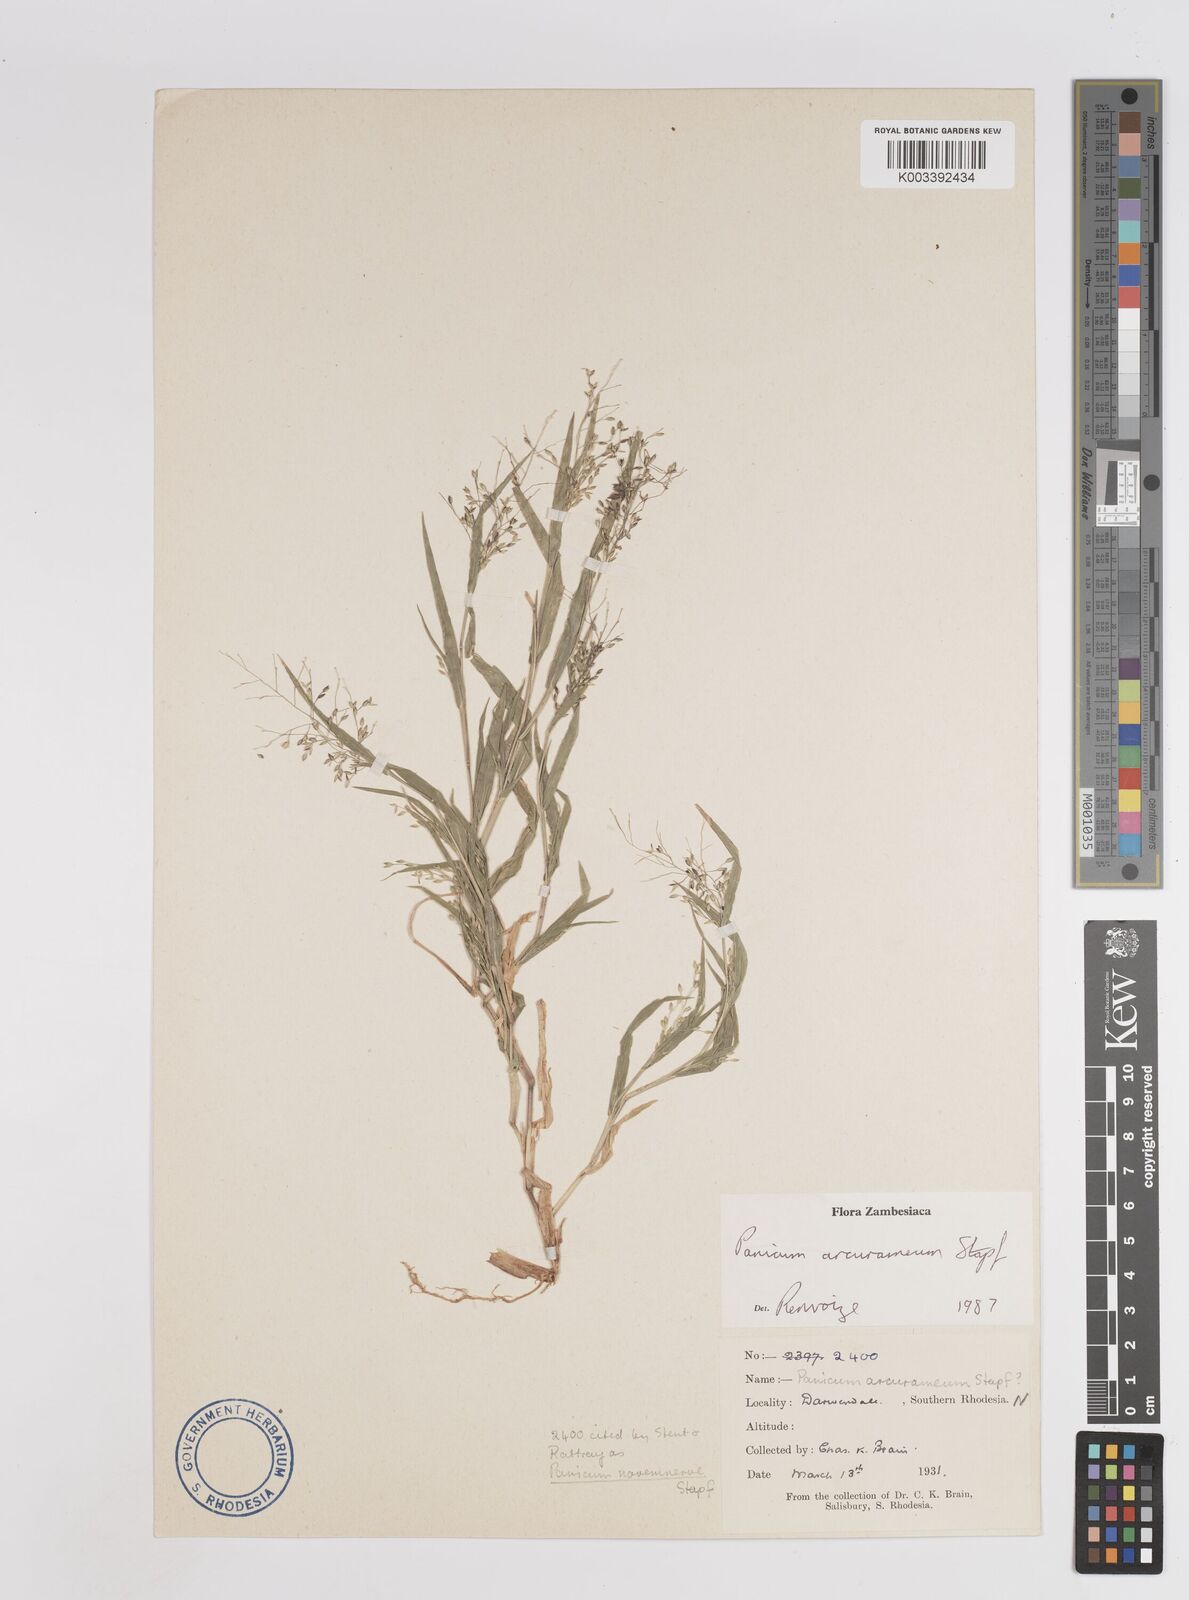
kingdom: Plantae
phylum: Tracheophyta
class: Liliopsida
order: Poales
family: Poaceae
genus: Panicum
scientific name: Panicum arcurameum
